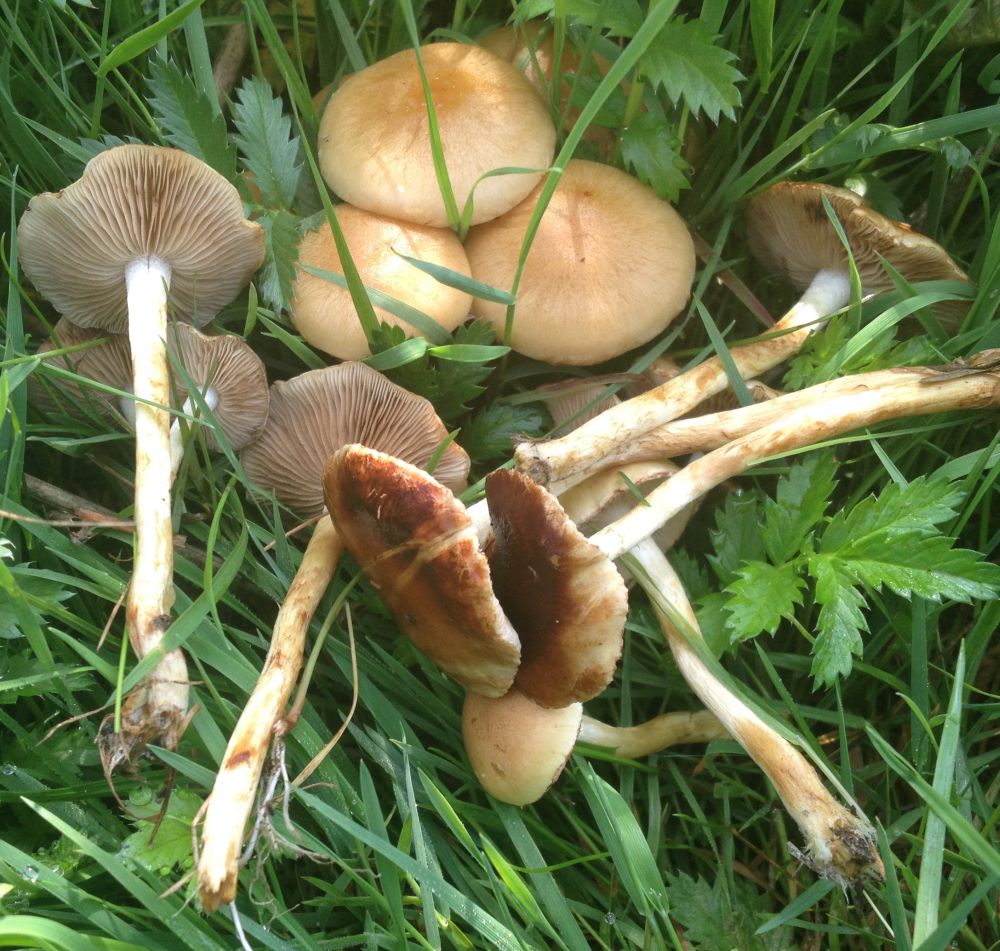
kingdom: Fungi
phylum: Basidiomycota
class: Agaricomycetes
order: Agaricales
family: Strophariaceae
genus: Pholiota
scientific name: Pholiota conissans
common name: pile-skælhat
